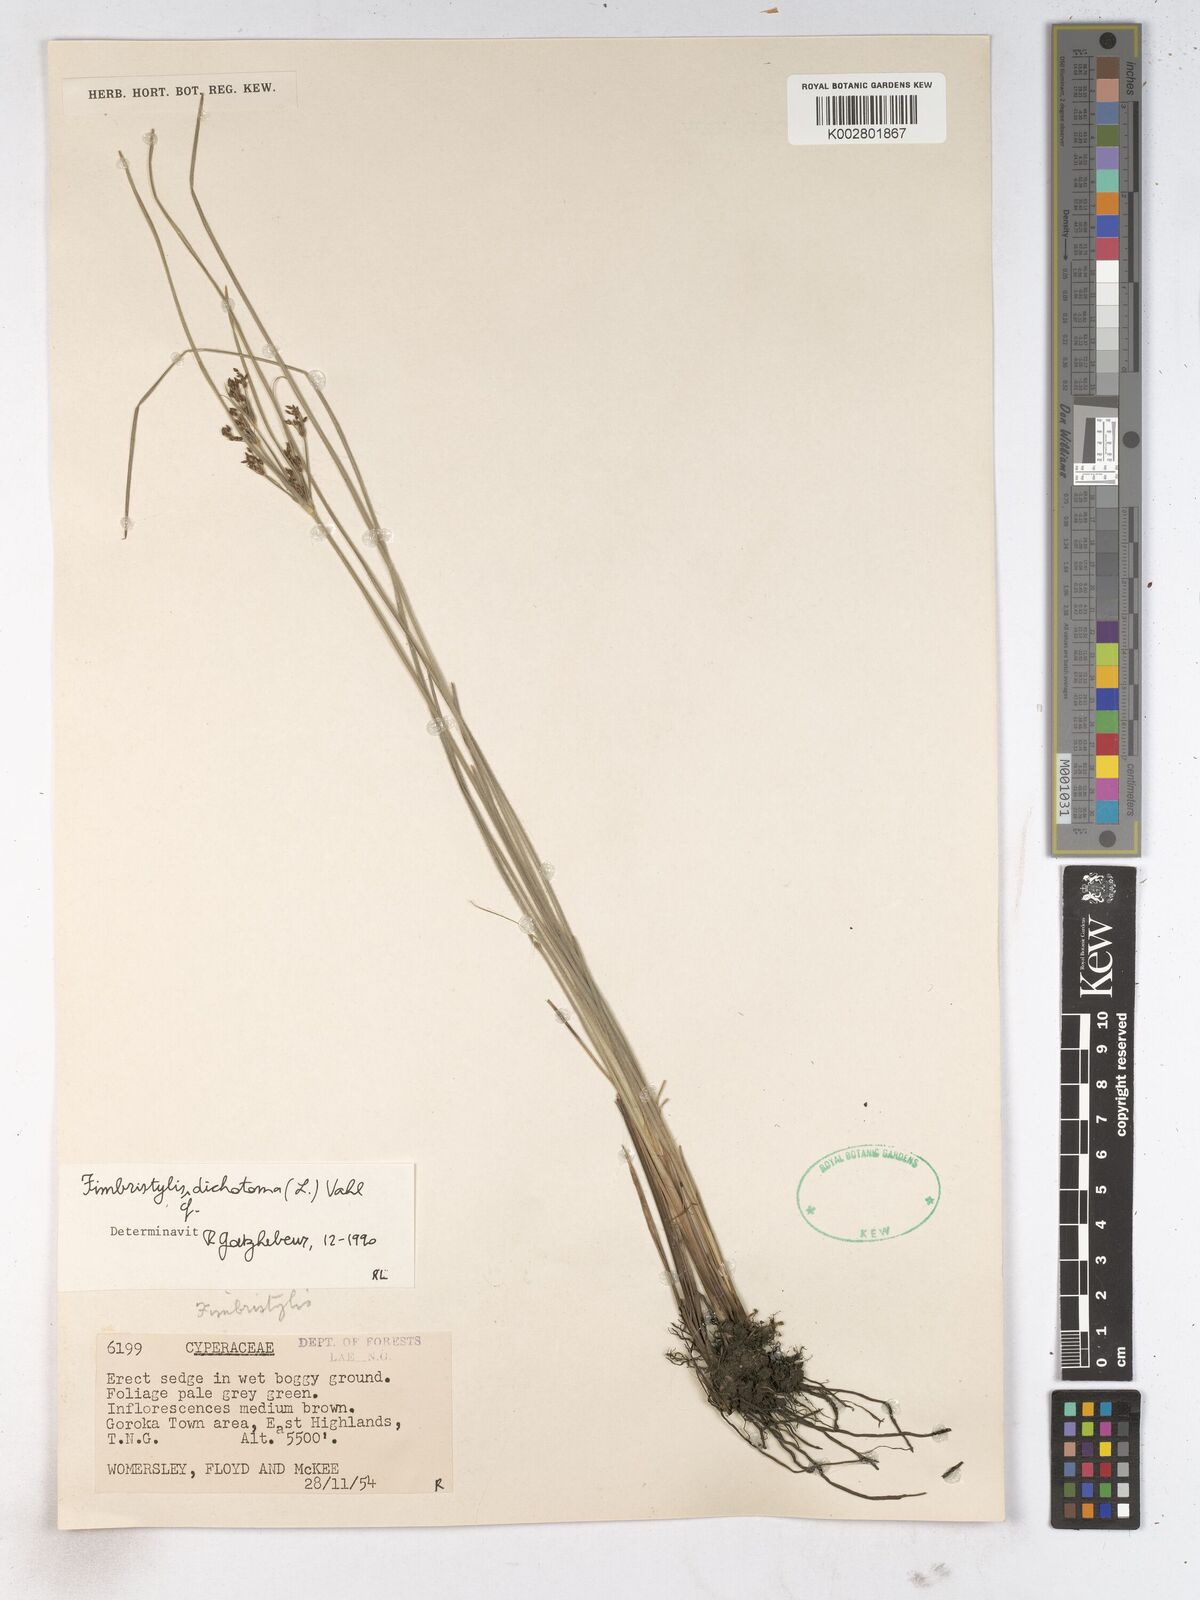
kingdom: Plantae
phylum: Tracheophyta
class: Liliopsida
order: Poales
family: Cyperaceae
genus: Fimbristylis
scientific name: Fimbristylis dichotoma
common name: Forked fimbry
